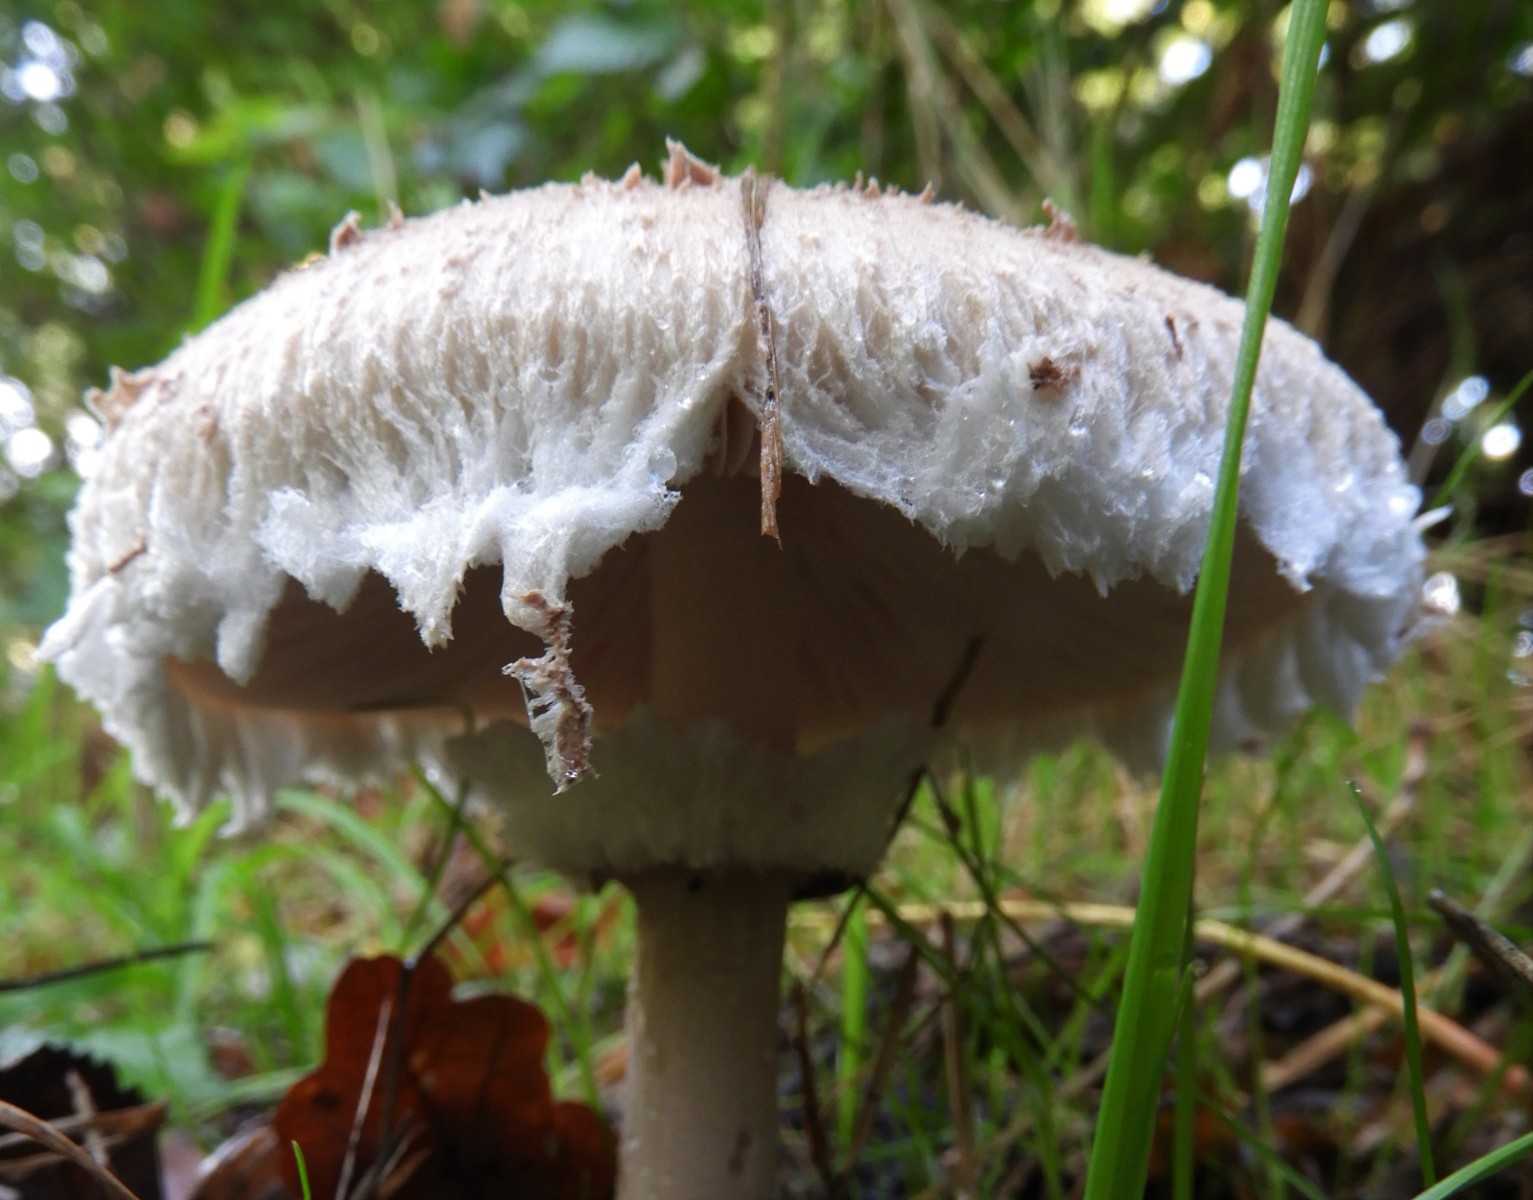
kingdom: Fungi
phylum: Basidiomycota
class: Agaricomycetes
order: Agaricales
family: Agaricaceae
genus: Chlorophyllum
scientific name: Chlorophyllum
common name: rabarberhat
